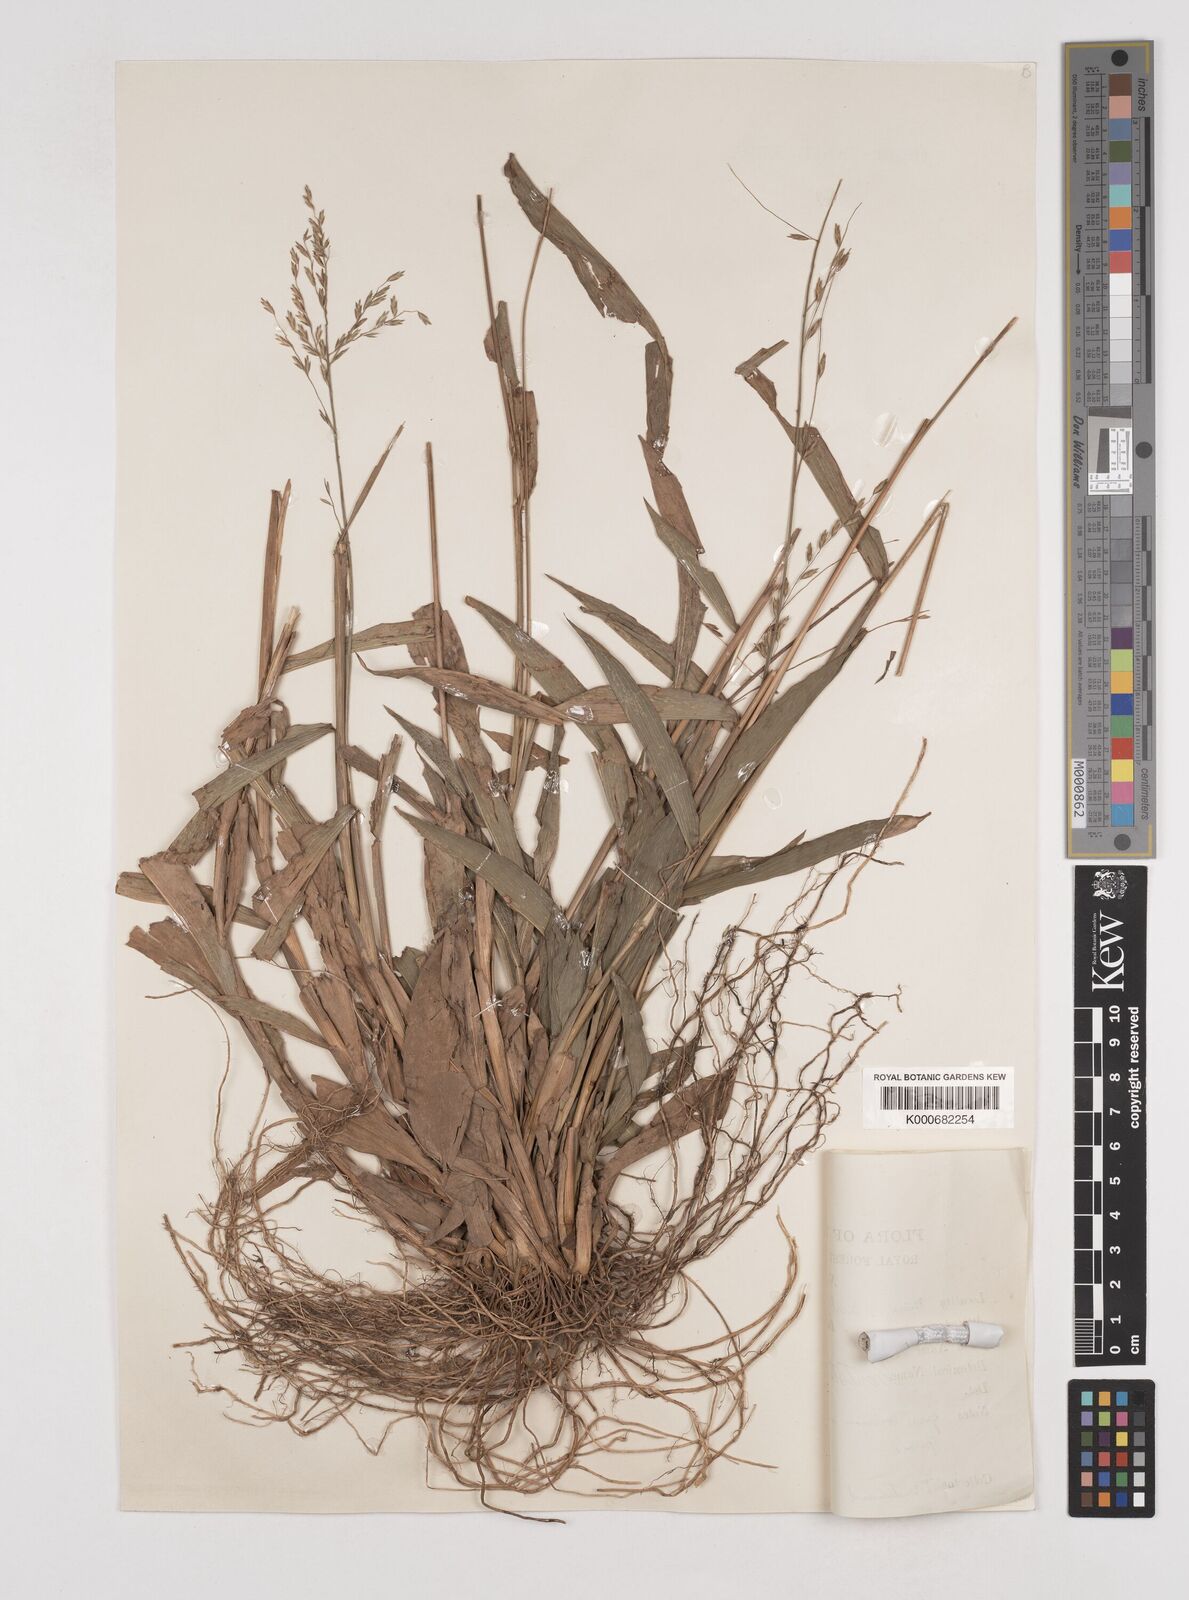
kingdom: Plantae
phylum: Tracheophyta
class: Liliopsida
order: Poales
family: Poaceae
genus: Centotheca
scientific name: Centotheca lappacea
